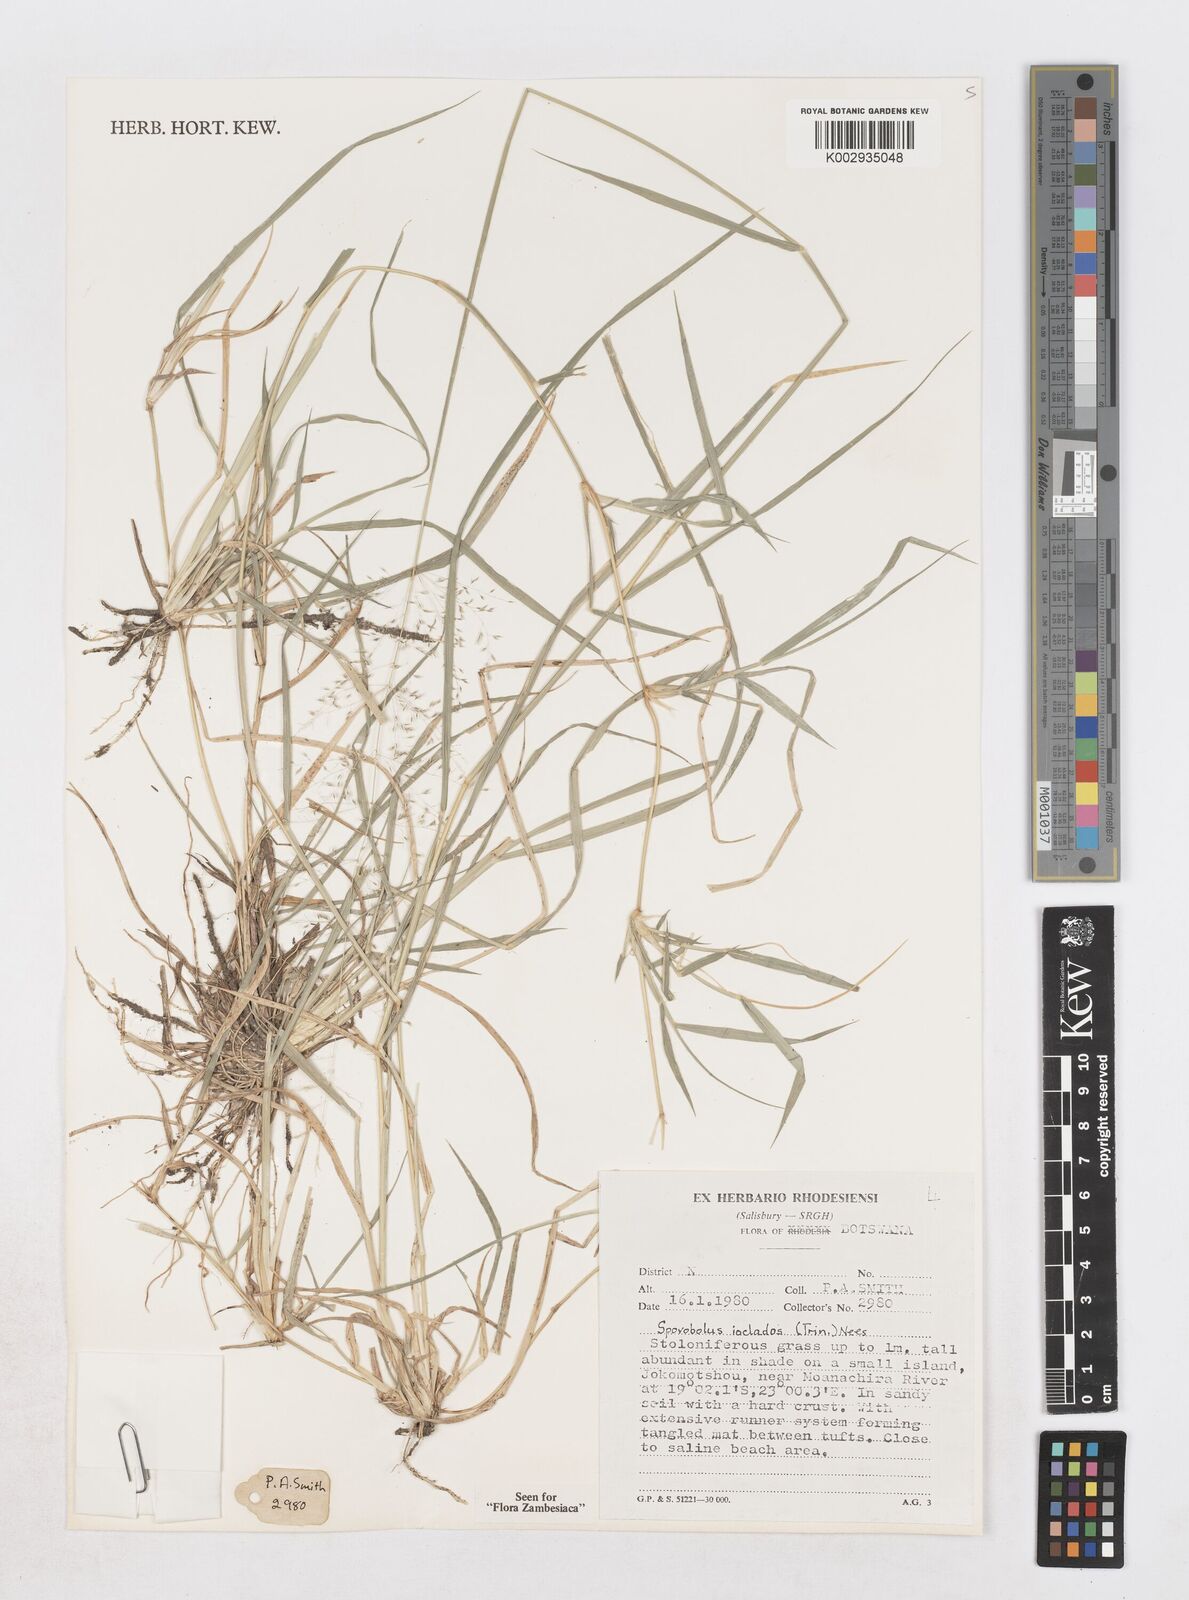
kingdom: Plantae
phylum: Tracheophyta
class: Liliopsida
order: Poales
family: Poaceae
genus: Sporobolus
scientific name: Sporobolus ioclados
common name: Pan dropseed
